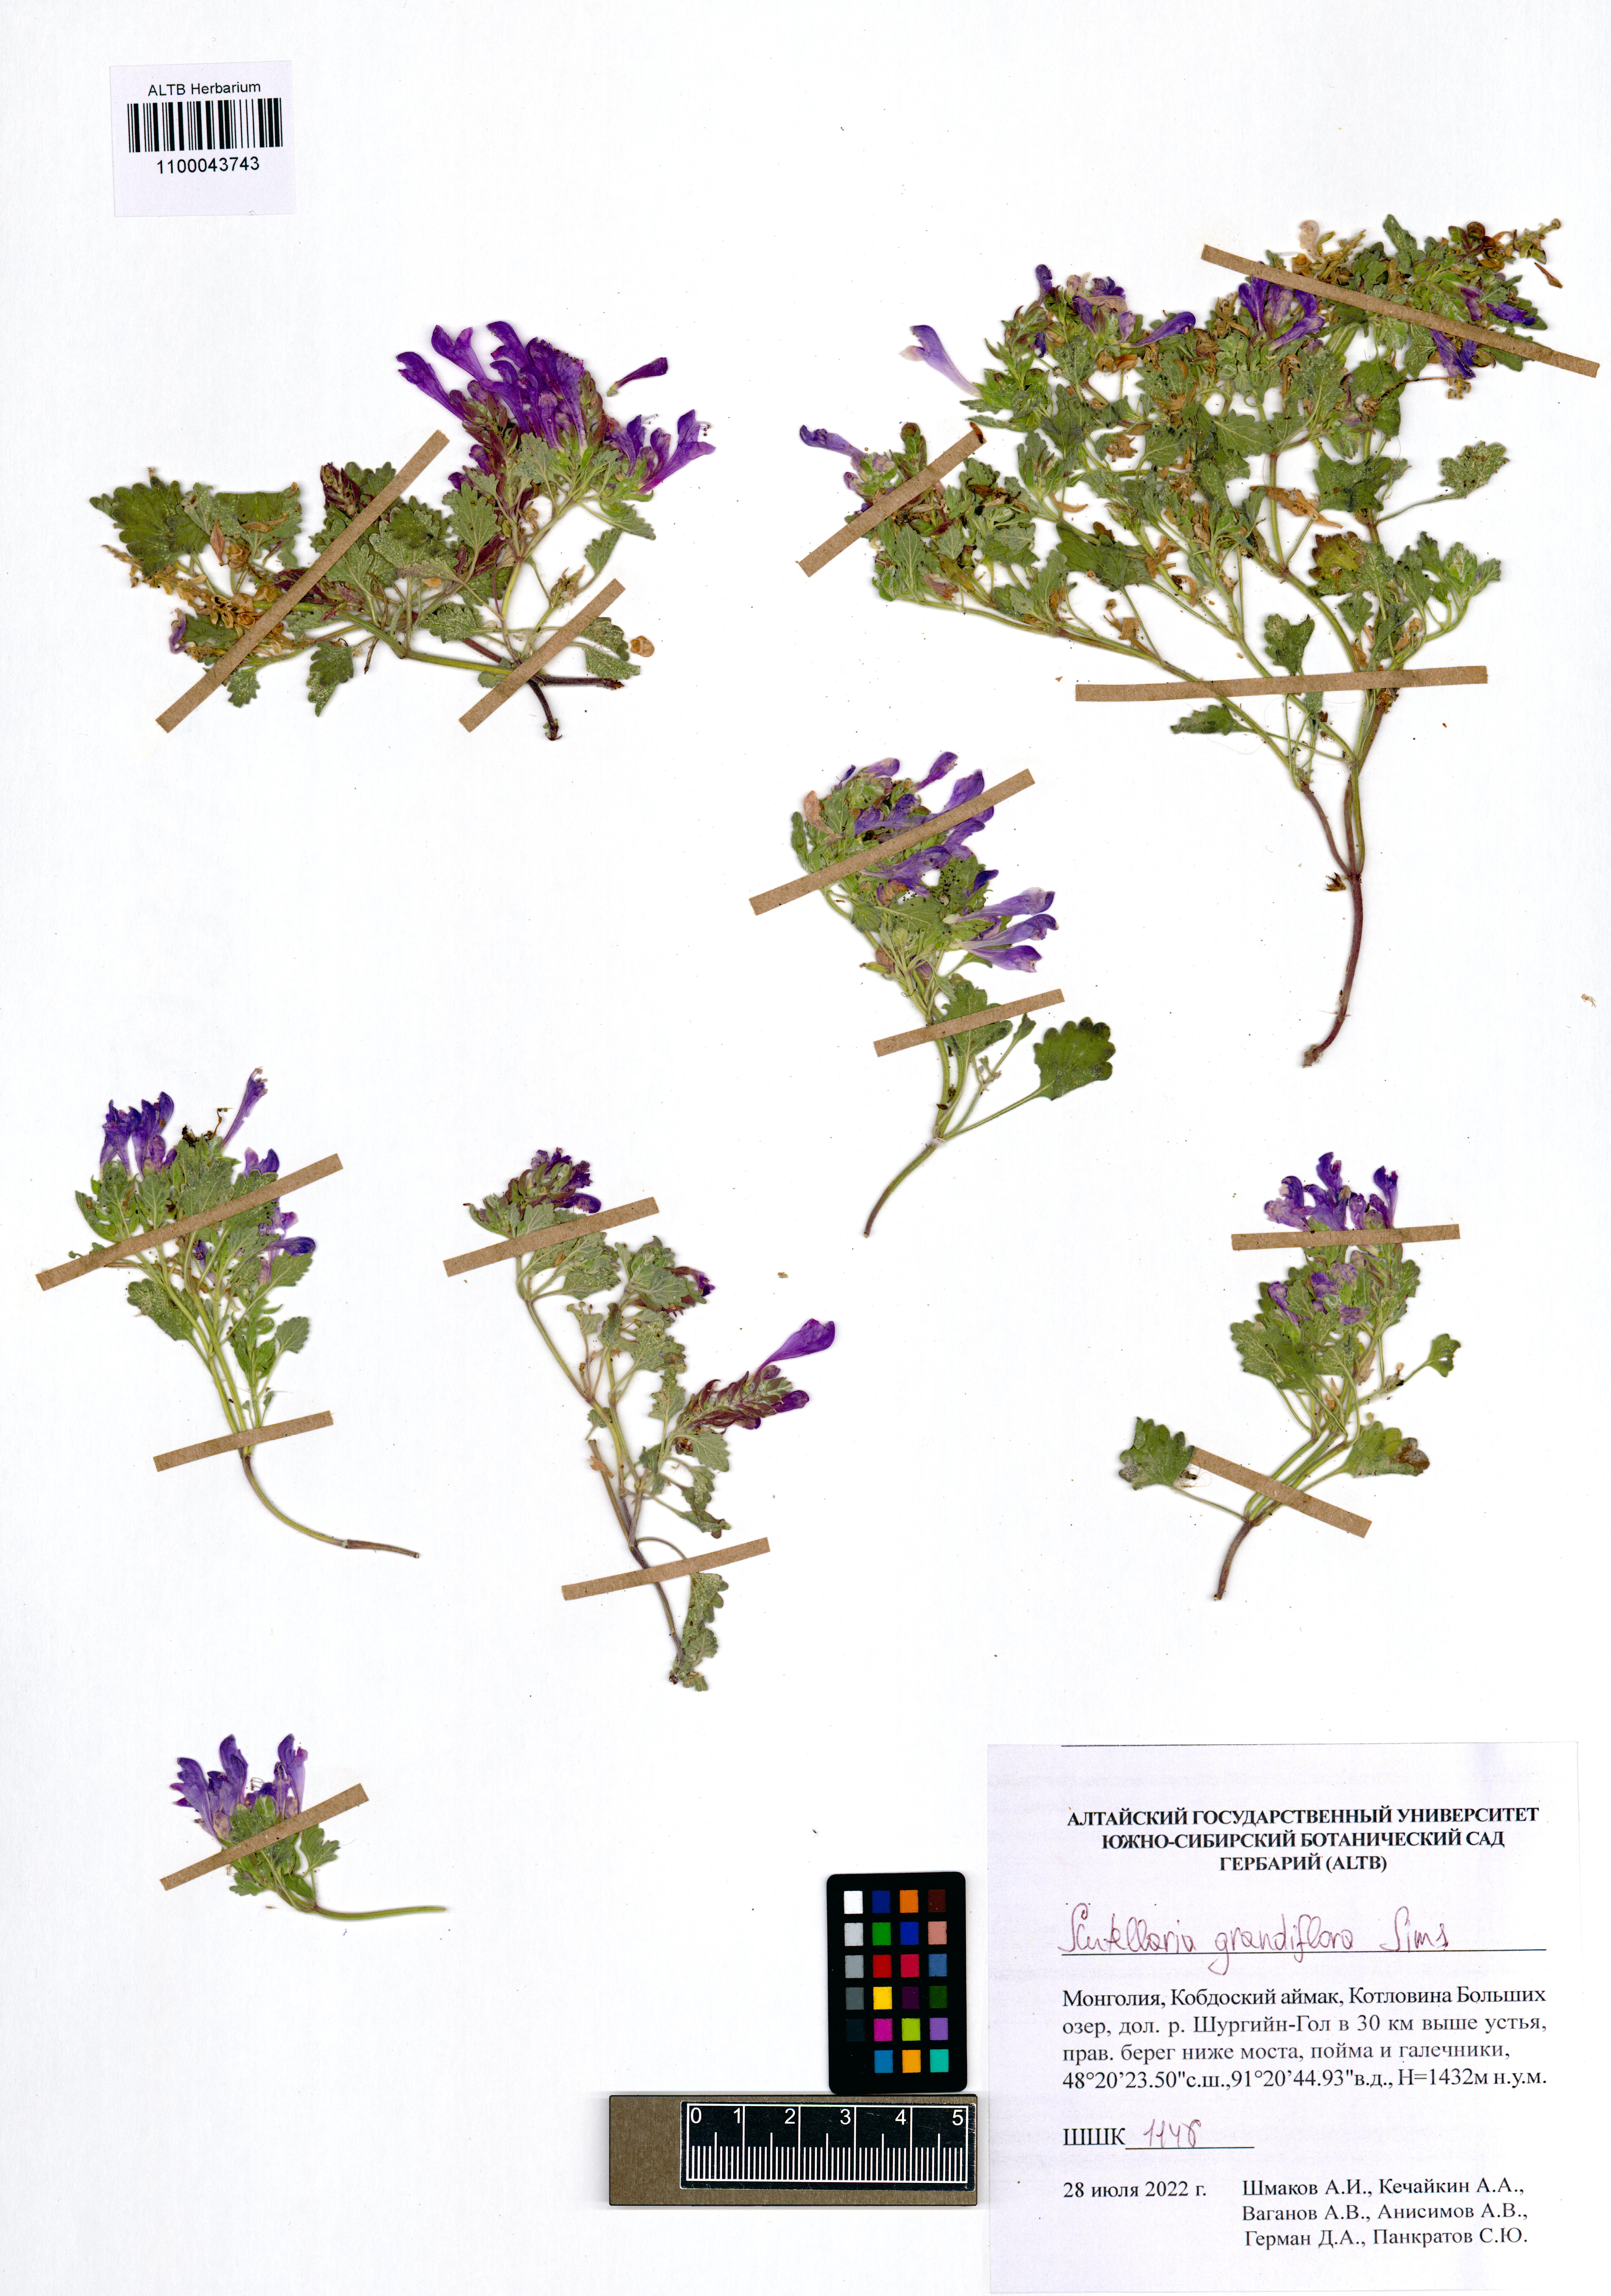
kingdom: Plantae
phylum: Tracheophyta
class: Magnoliopsida
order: Lamiales
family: Lamiaceae
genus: Scutellaria
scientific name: Scutellaria grandiflora
